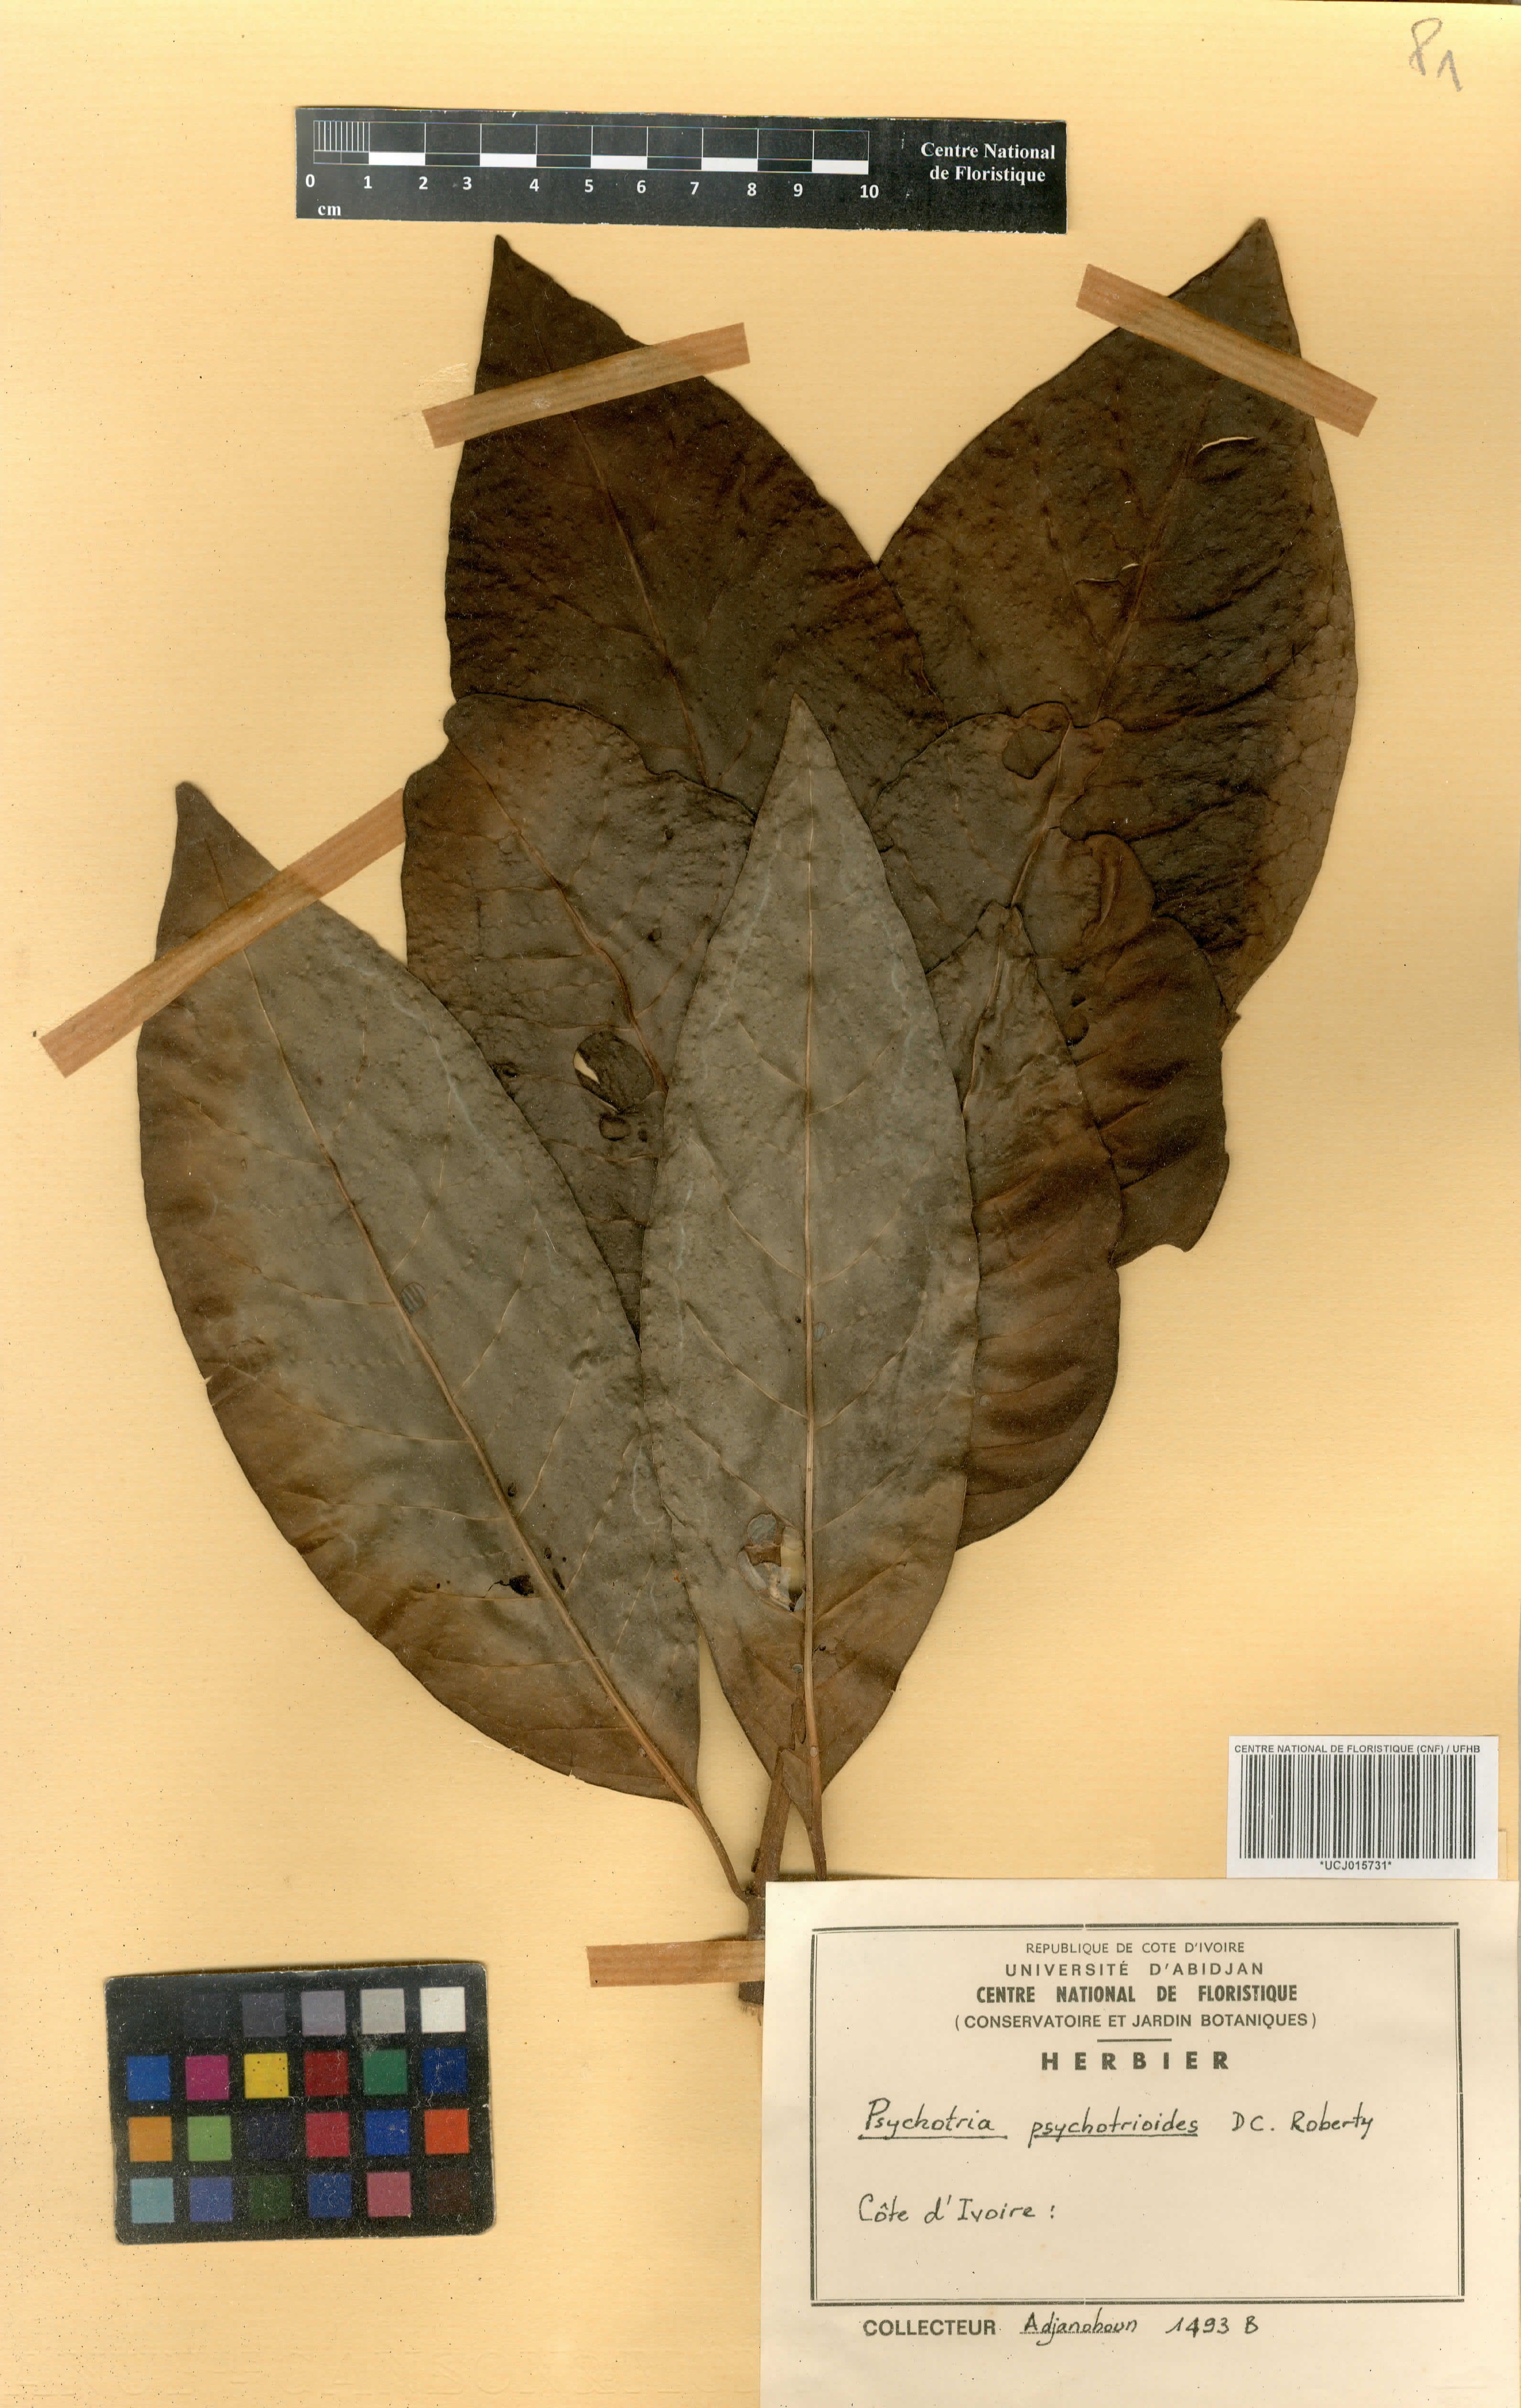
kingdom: Plantae
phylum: Tracheophyta
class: Magnoliopsida
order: Gentianales
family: Rubiaceae
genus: Psychotria
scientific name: Psychotria psychotrioides
